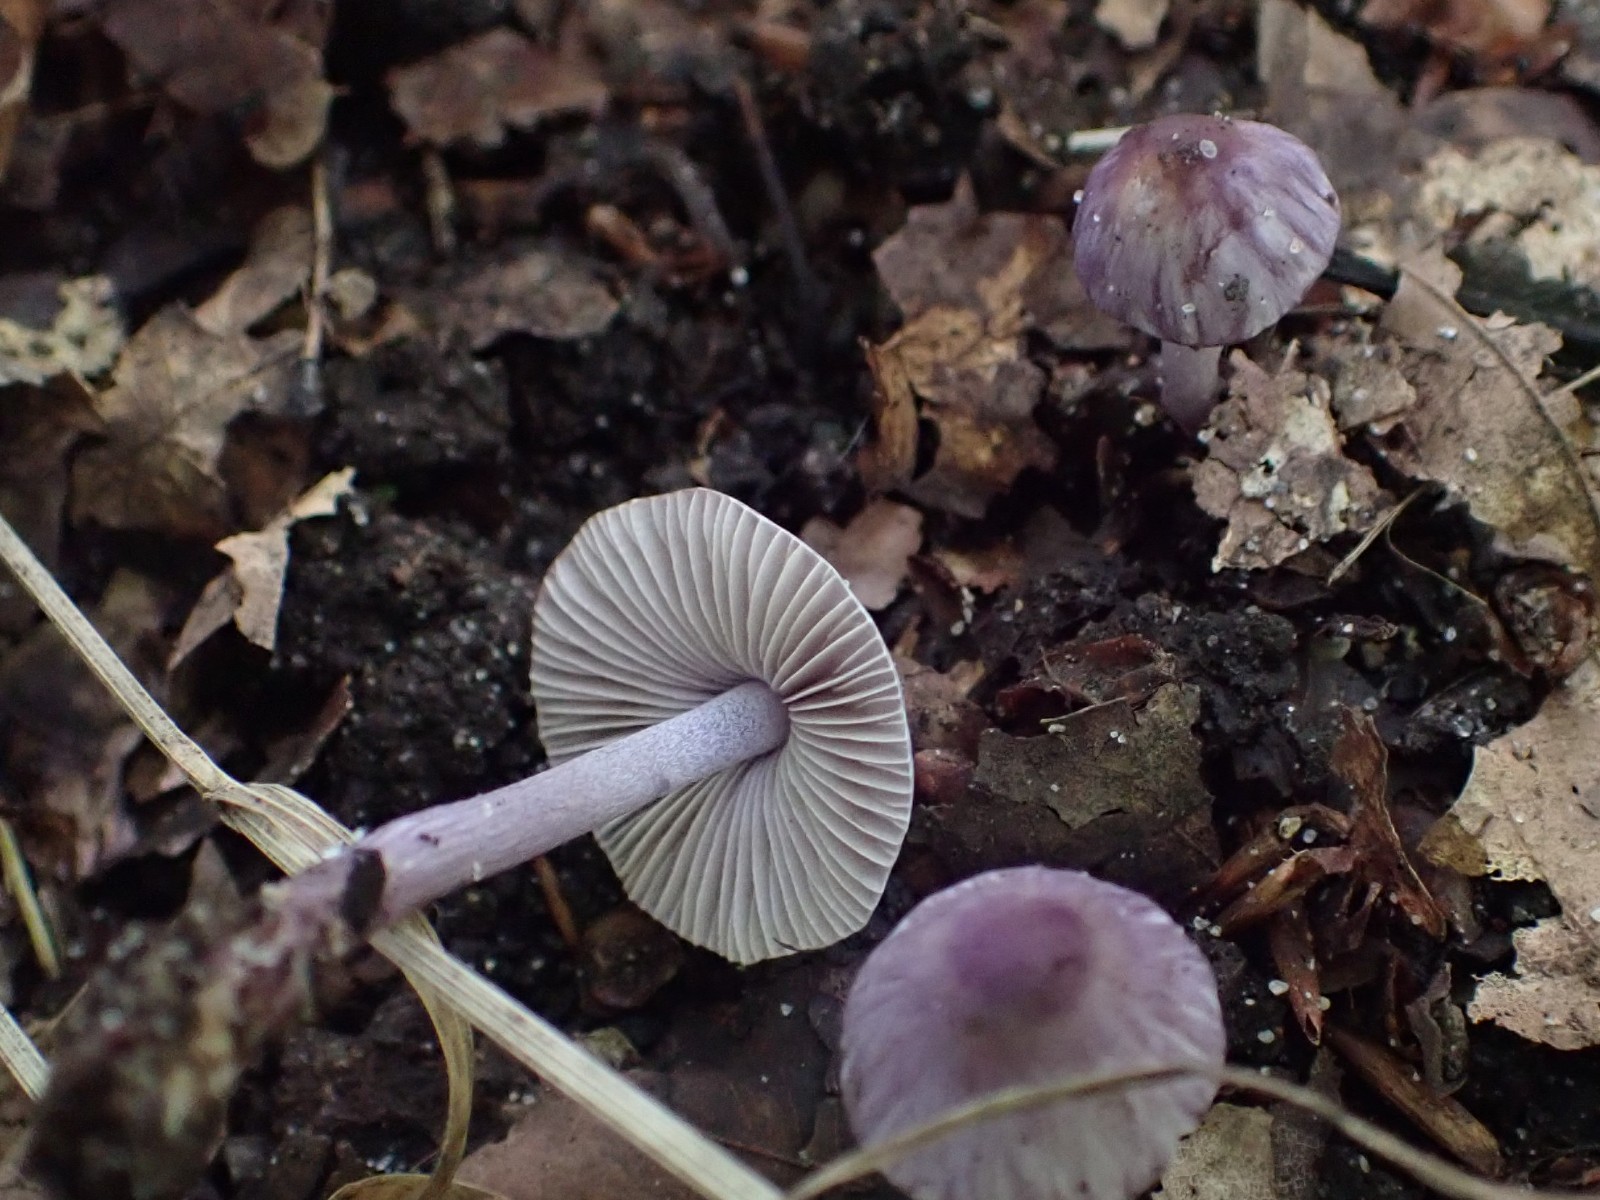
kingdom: Fungi
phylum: Basidiomycota
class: Agaricomycetes
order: Agaricales
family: Inocybaceae
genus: Inocybe
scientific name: Inocybe geophylla
